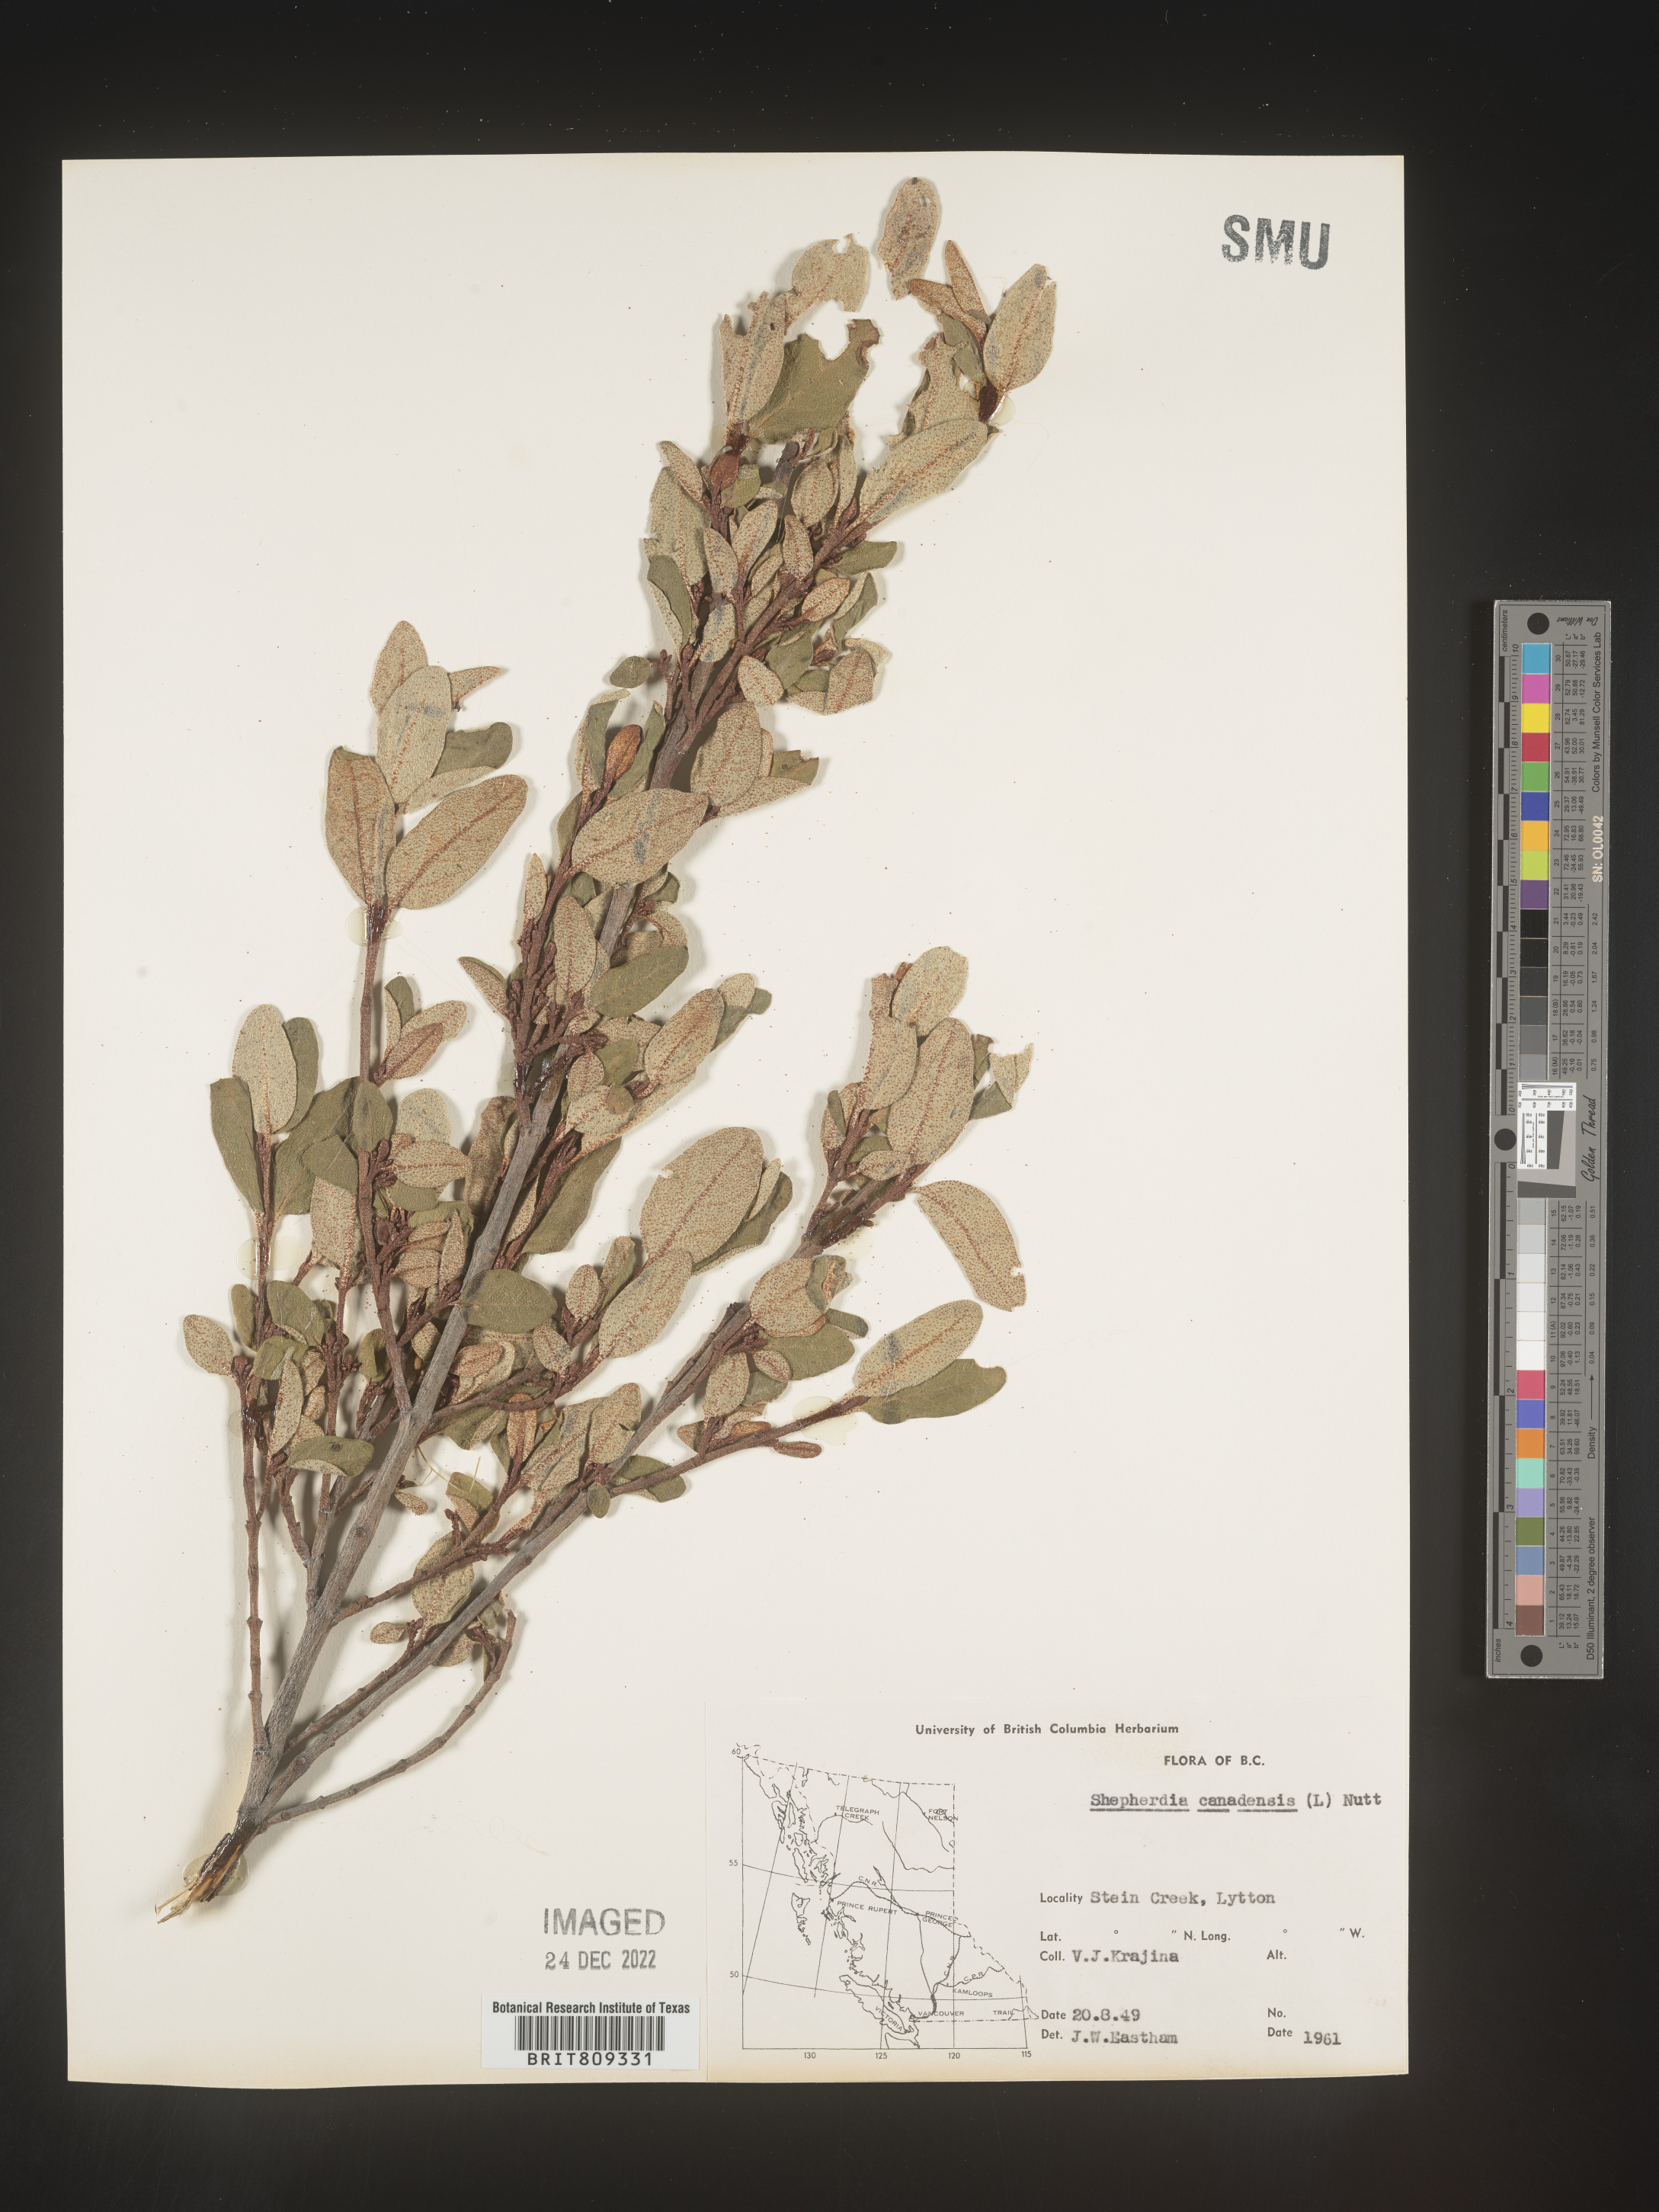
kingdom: Plantae
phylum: Tracheophyta
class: Magnoliopsida
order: Rosales
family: Elaeagnaceae
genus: Shepherdia
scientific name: Shepherdia canadensis
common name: Soapberry
